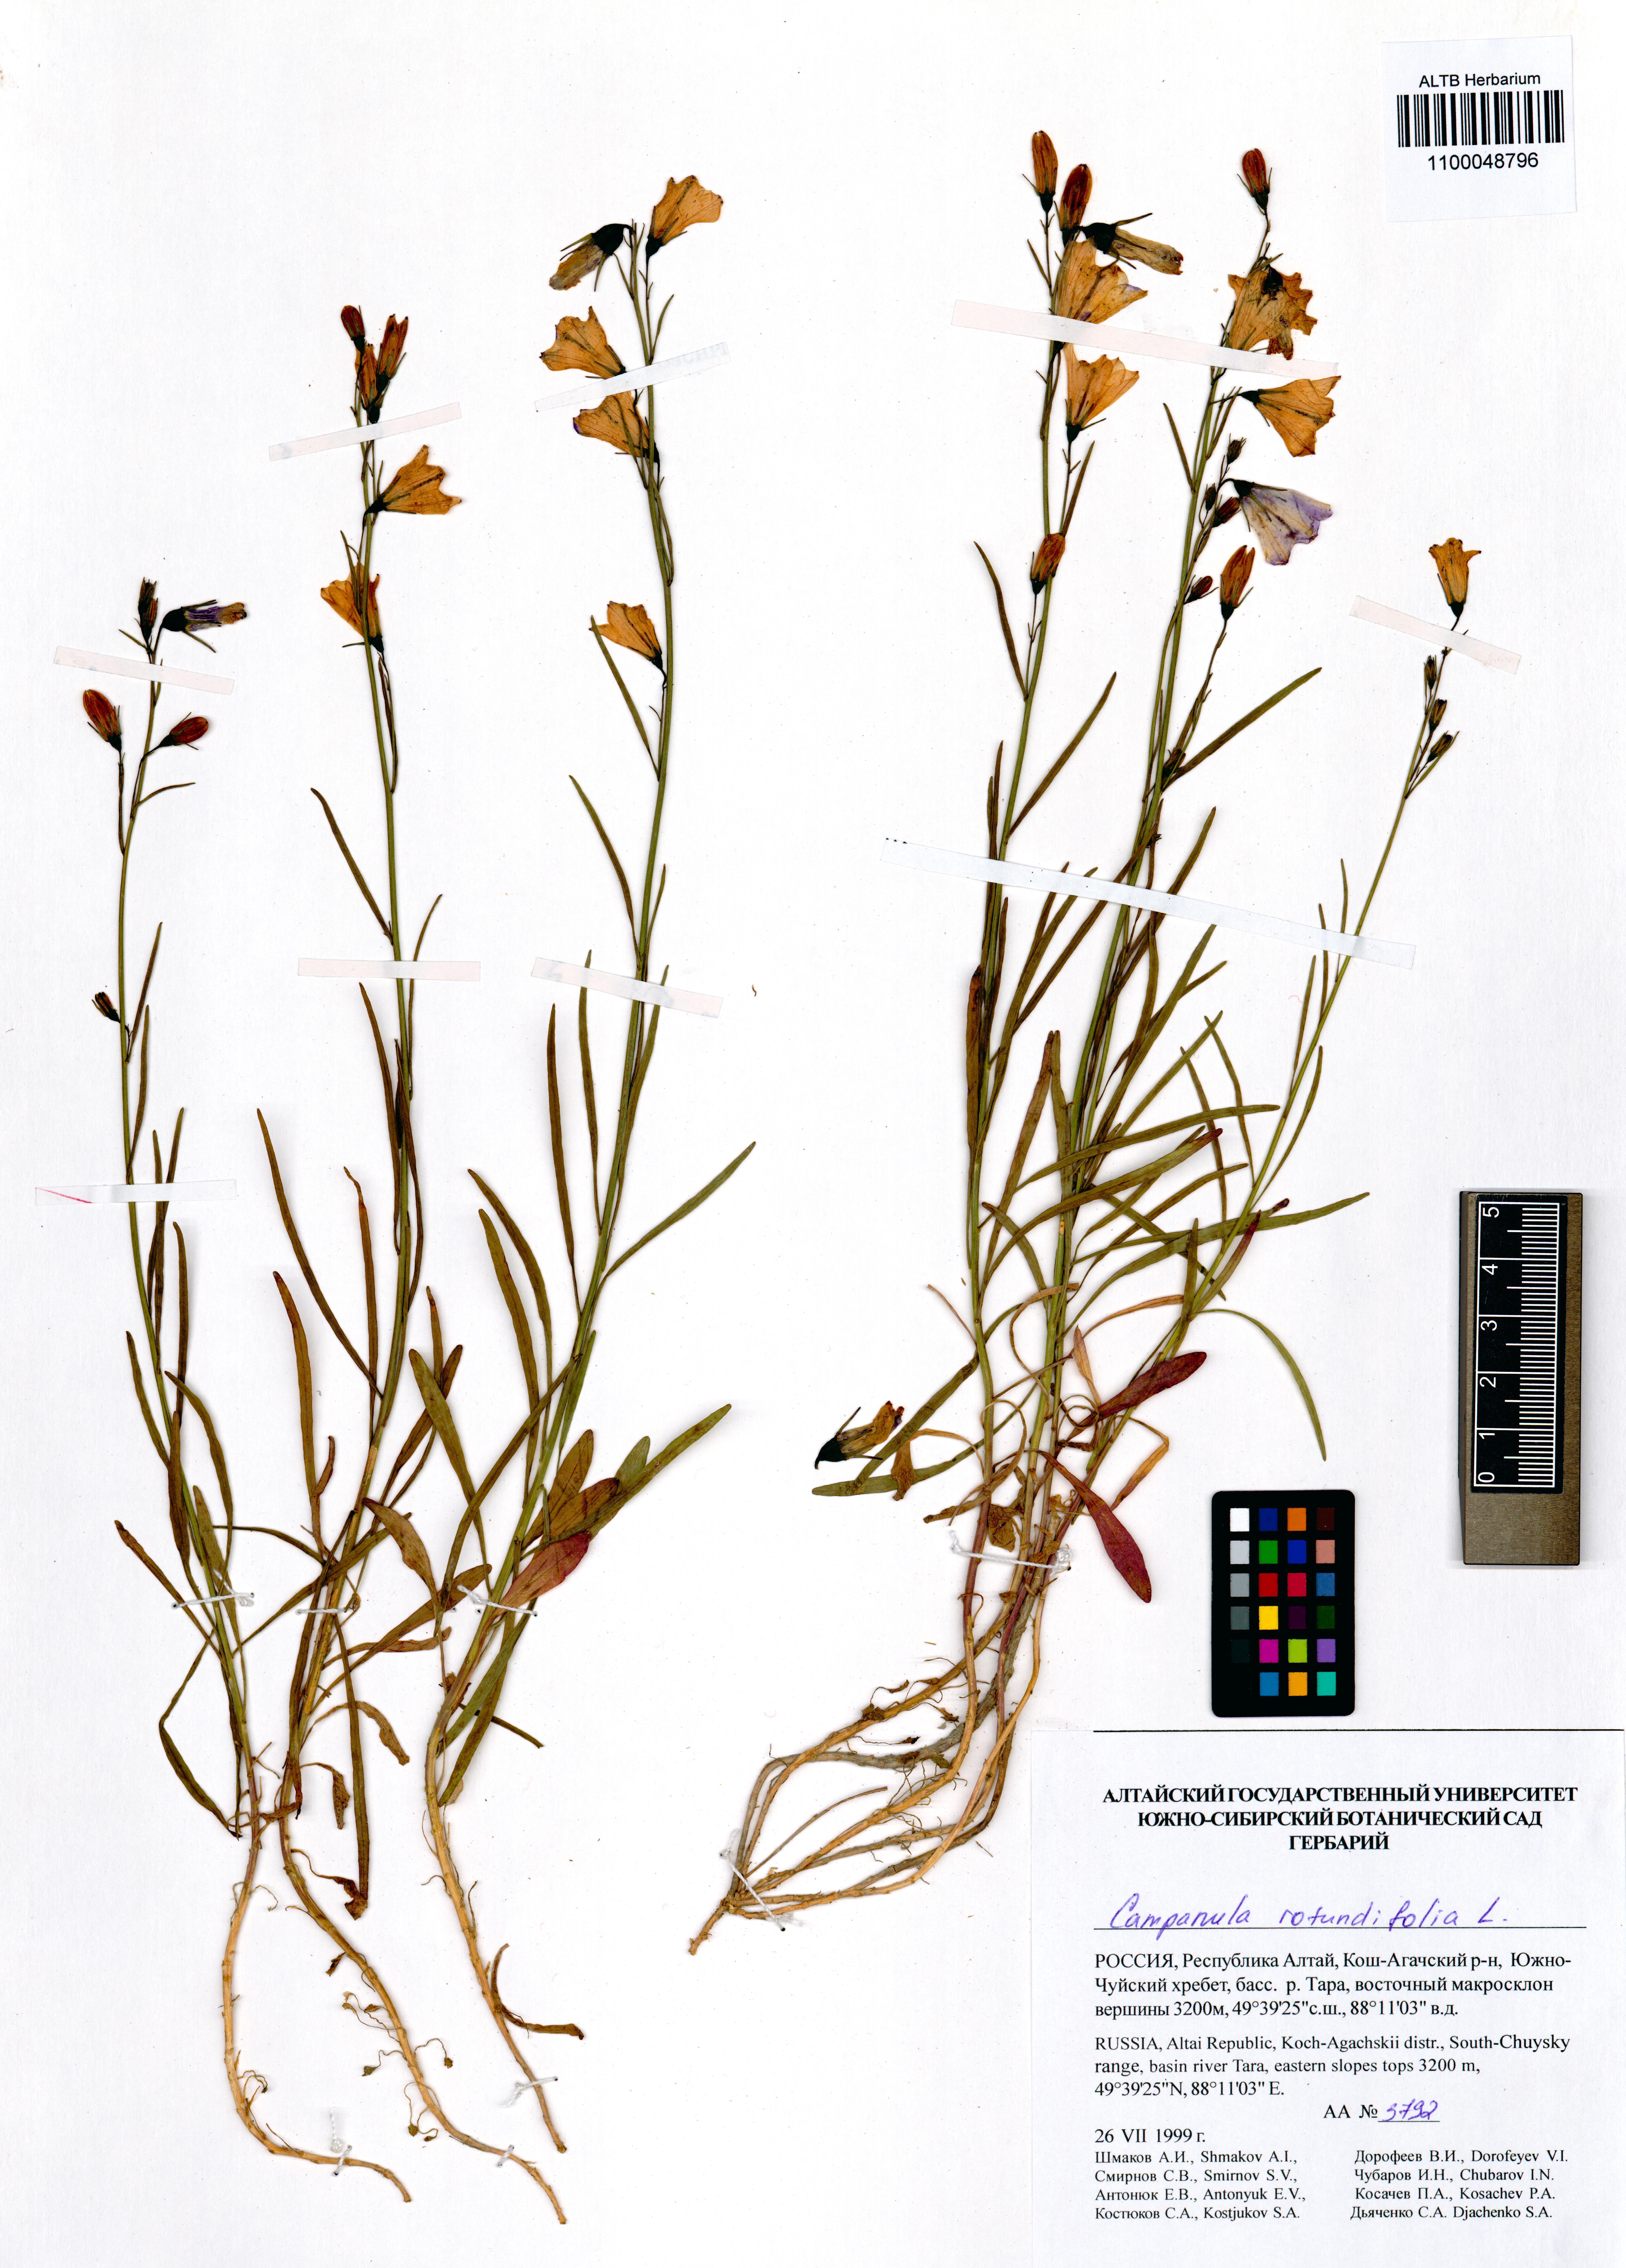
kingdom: Plantae
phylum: Tracheophyta
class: Magnoliopsida
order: Asterales
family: Campanulaceae
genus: Campanula
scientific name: Campanula rotundifolia
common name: Harebell
